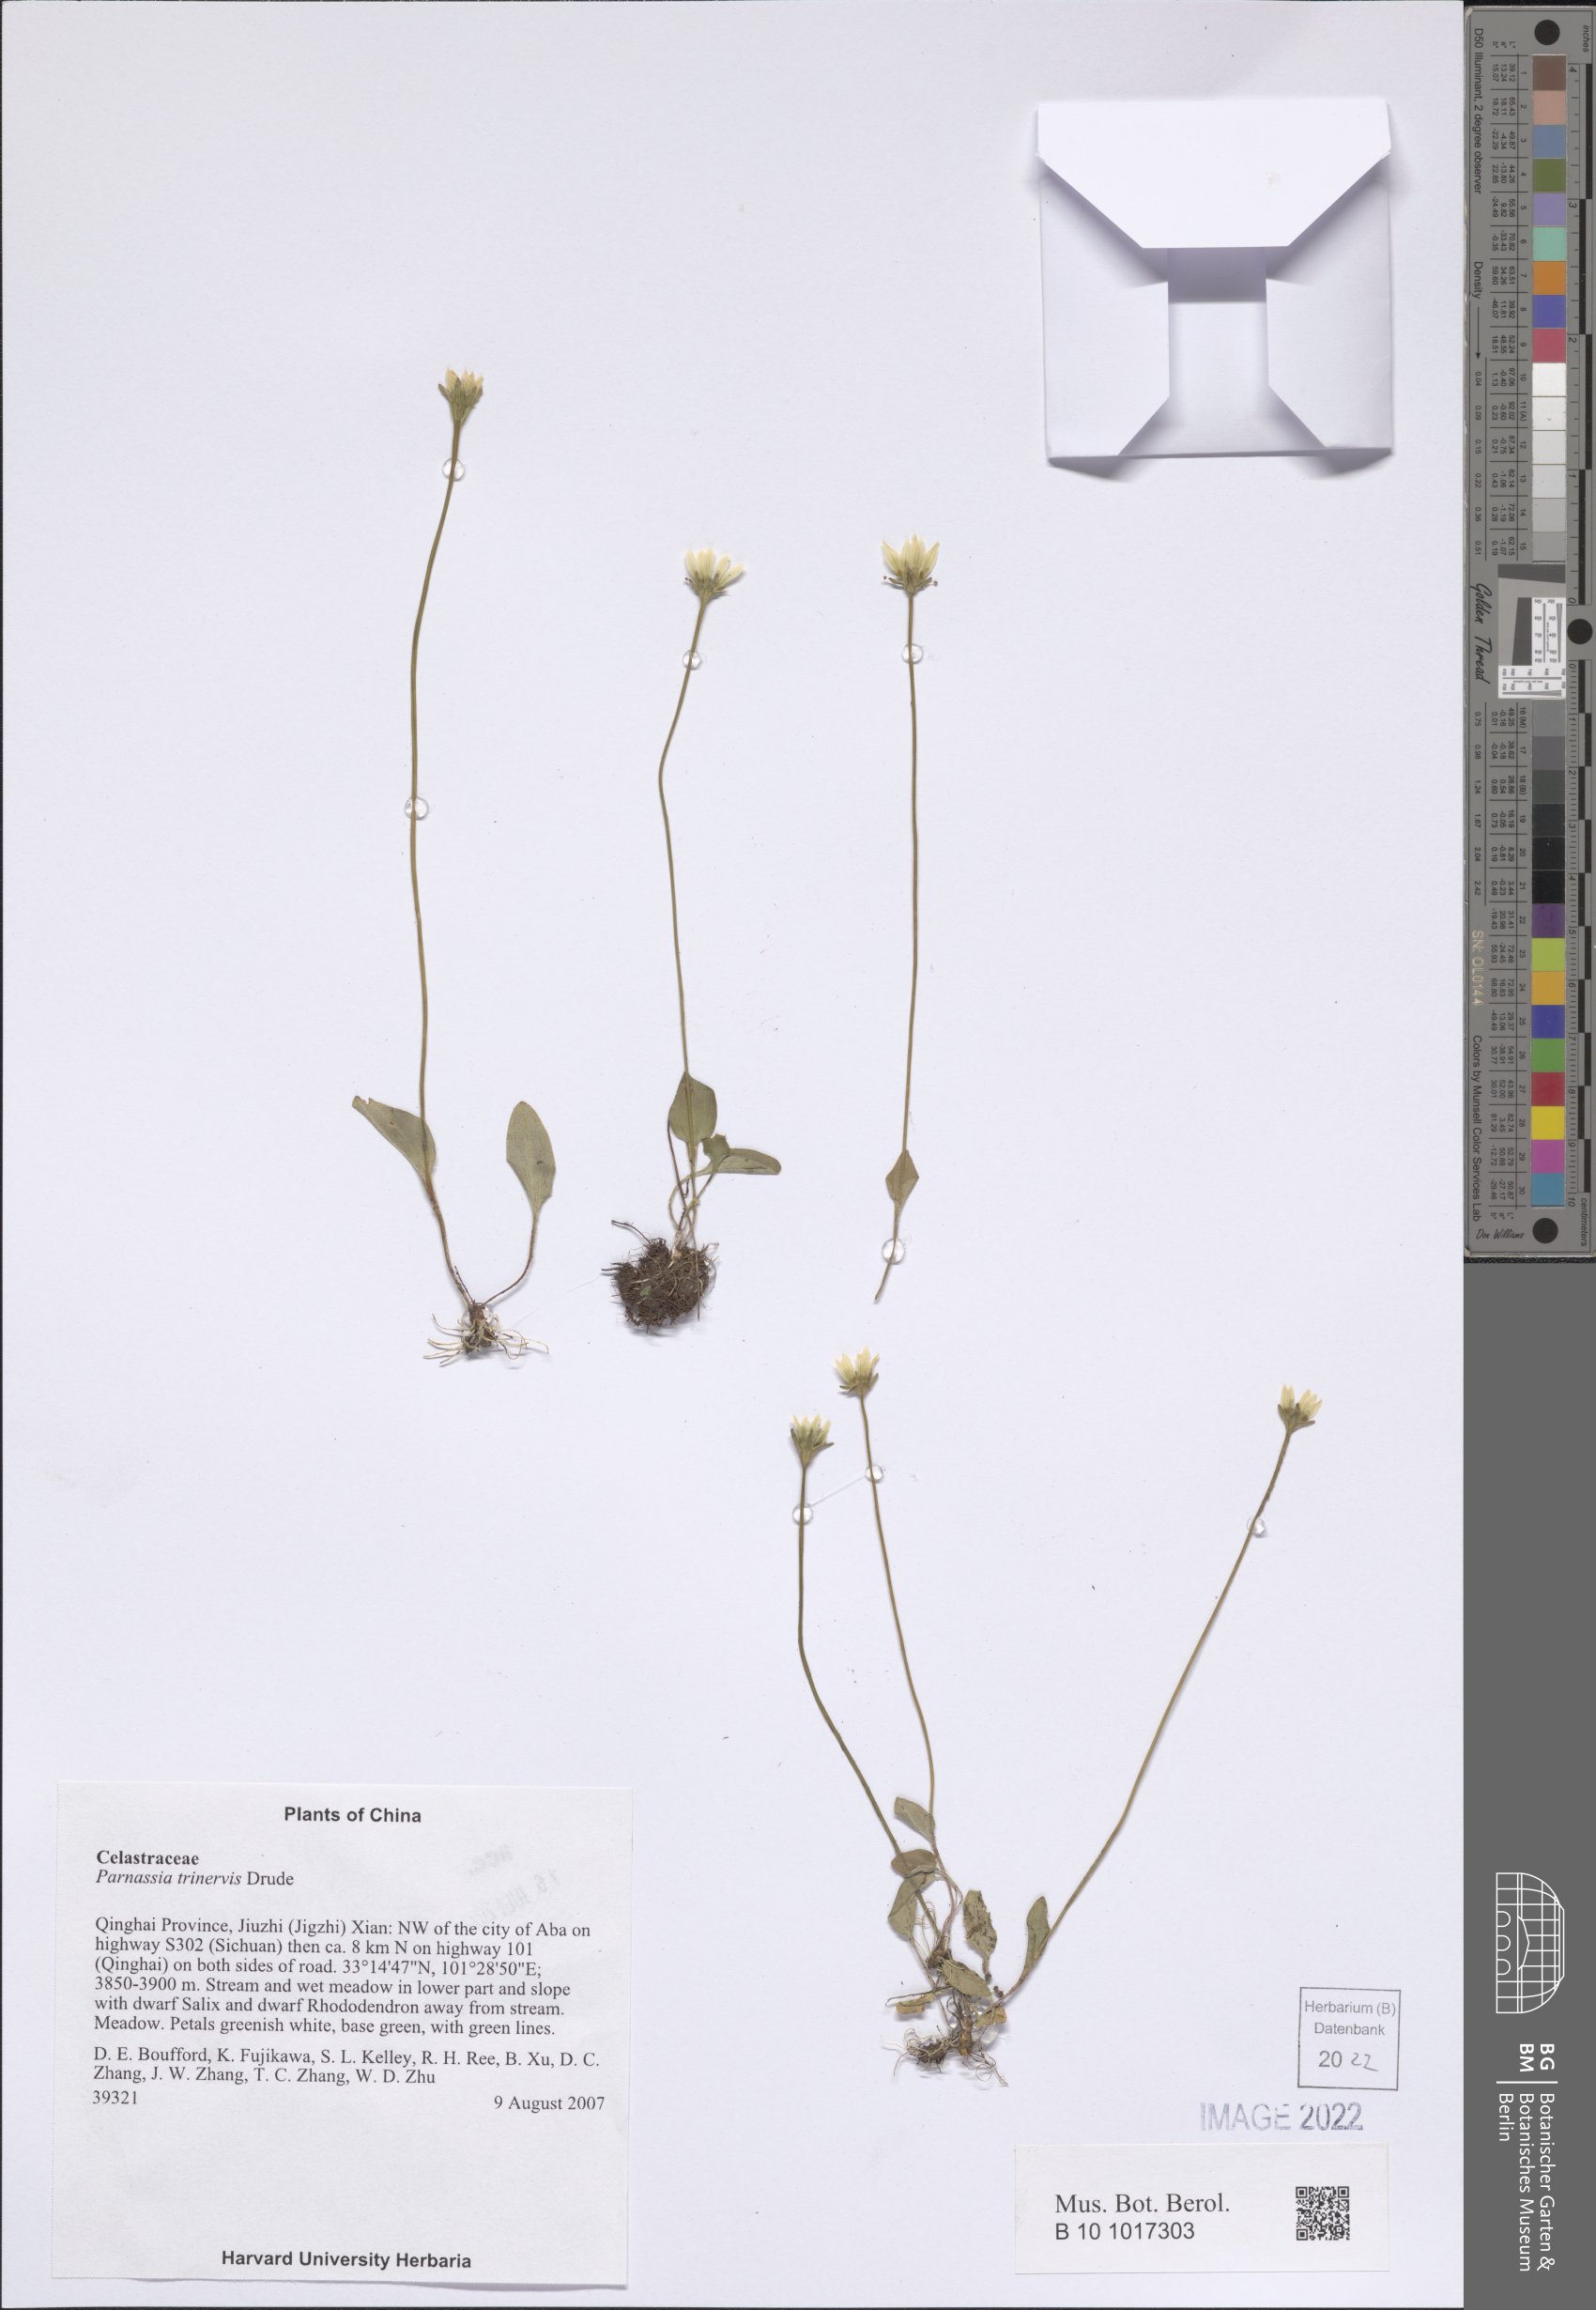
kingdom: Plantae
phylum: Tracheophyta
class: Magnoliopsida
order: Celastrales
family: Parnassiaceae
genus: Parnassia
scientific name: Parnassia trinervis
